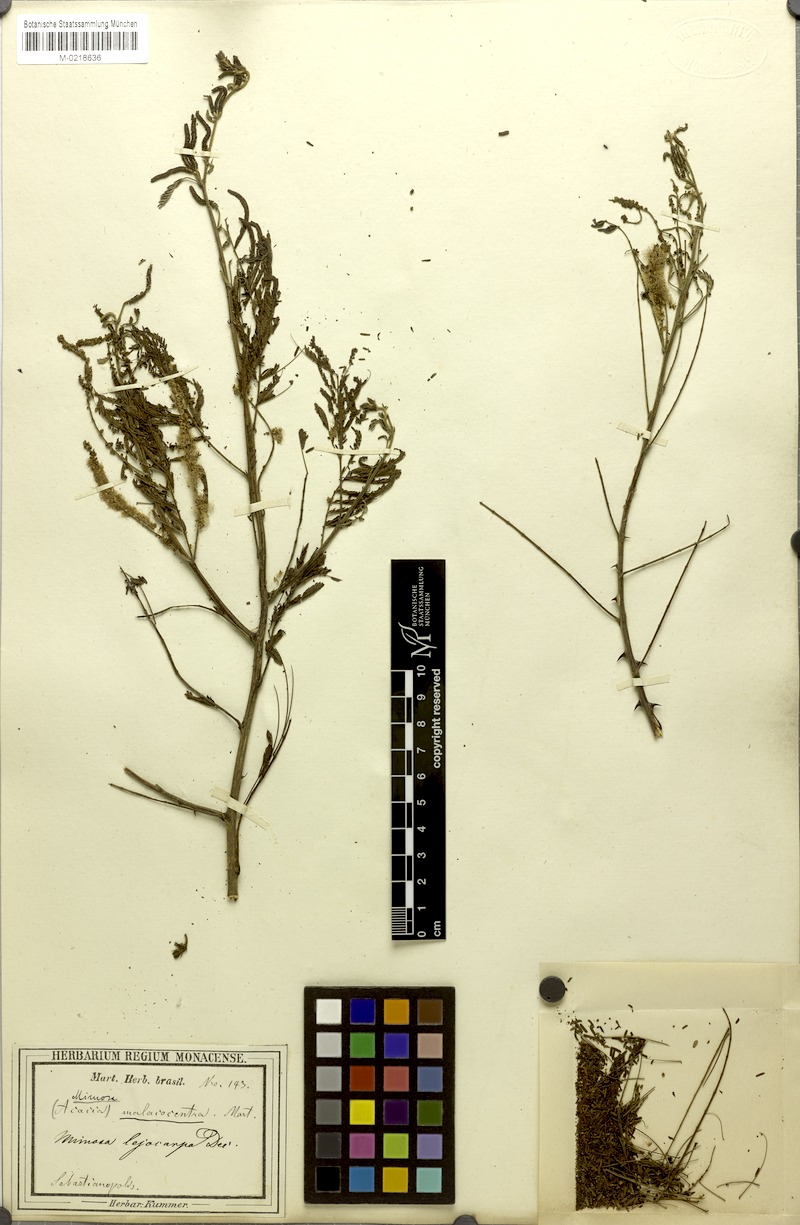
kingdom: Plantae
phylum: Tracheophyta
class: Magnoliopsida
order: Fabales
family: Fabaceae
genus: Mimosa
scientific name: Mimosa arenosa
